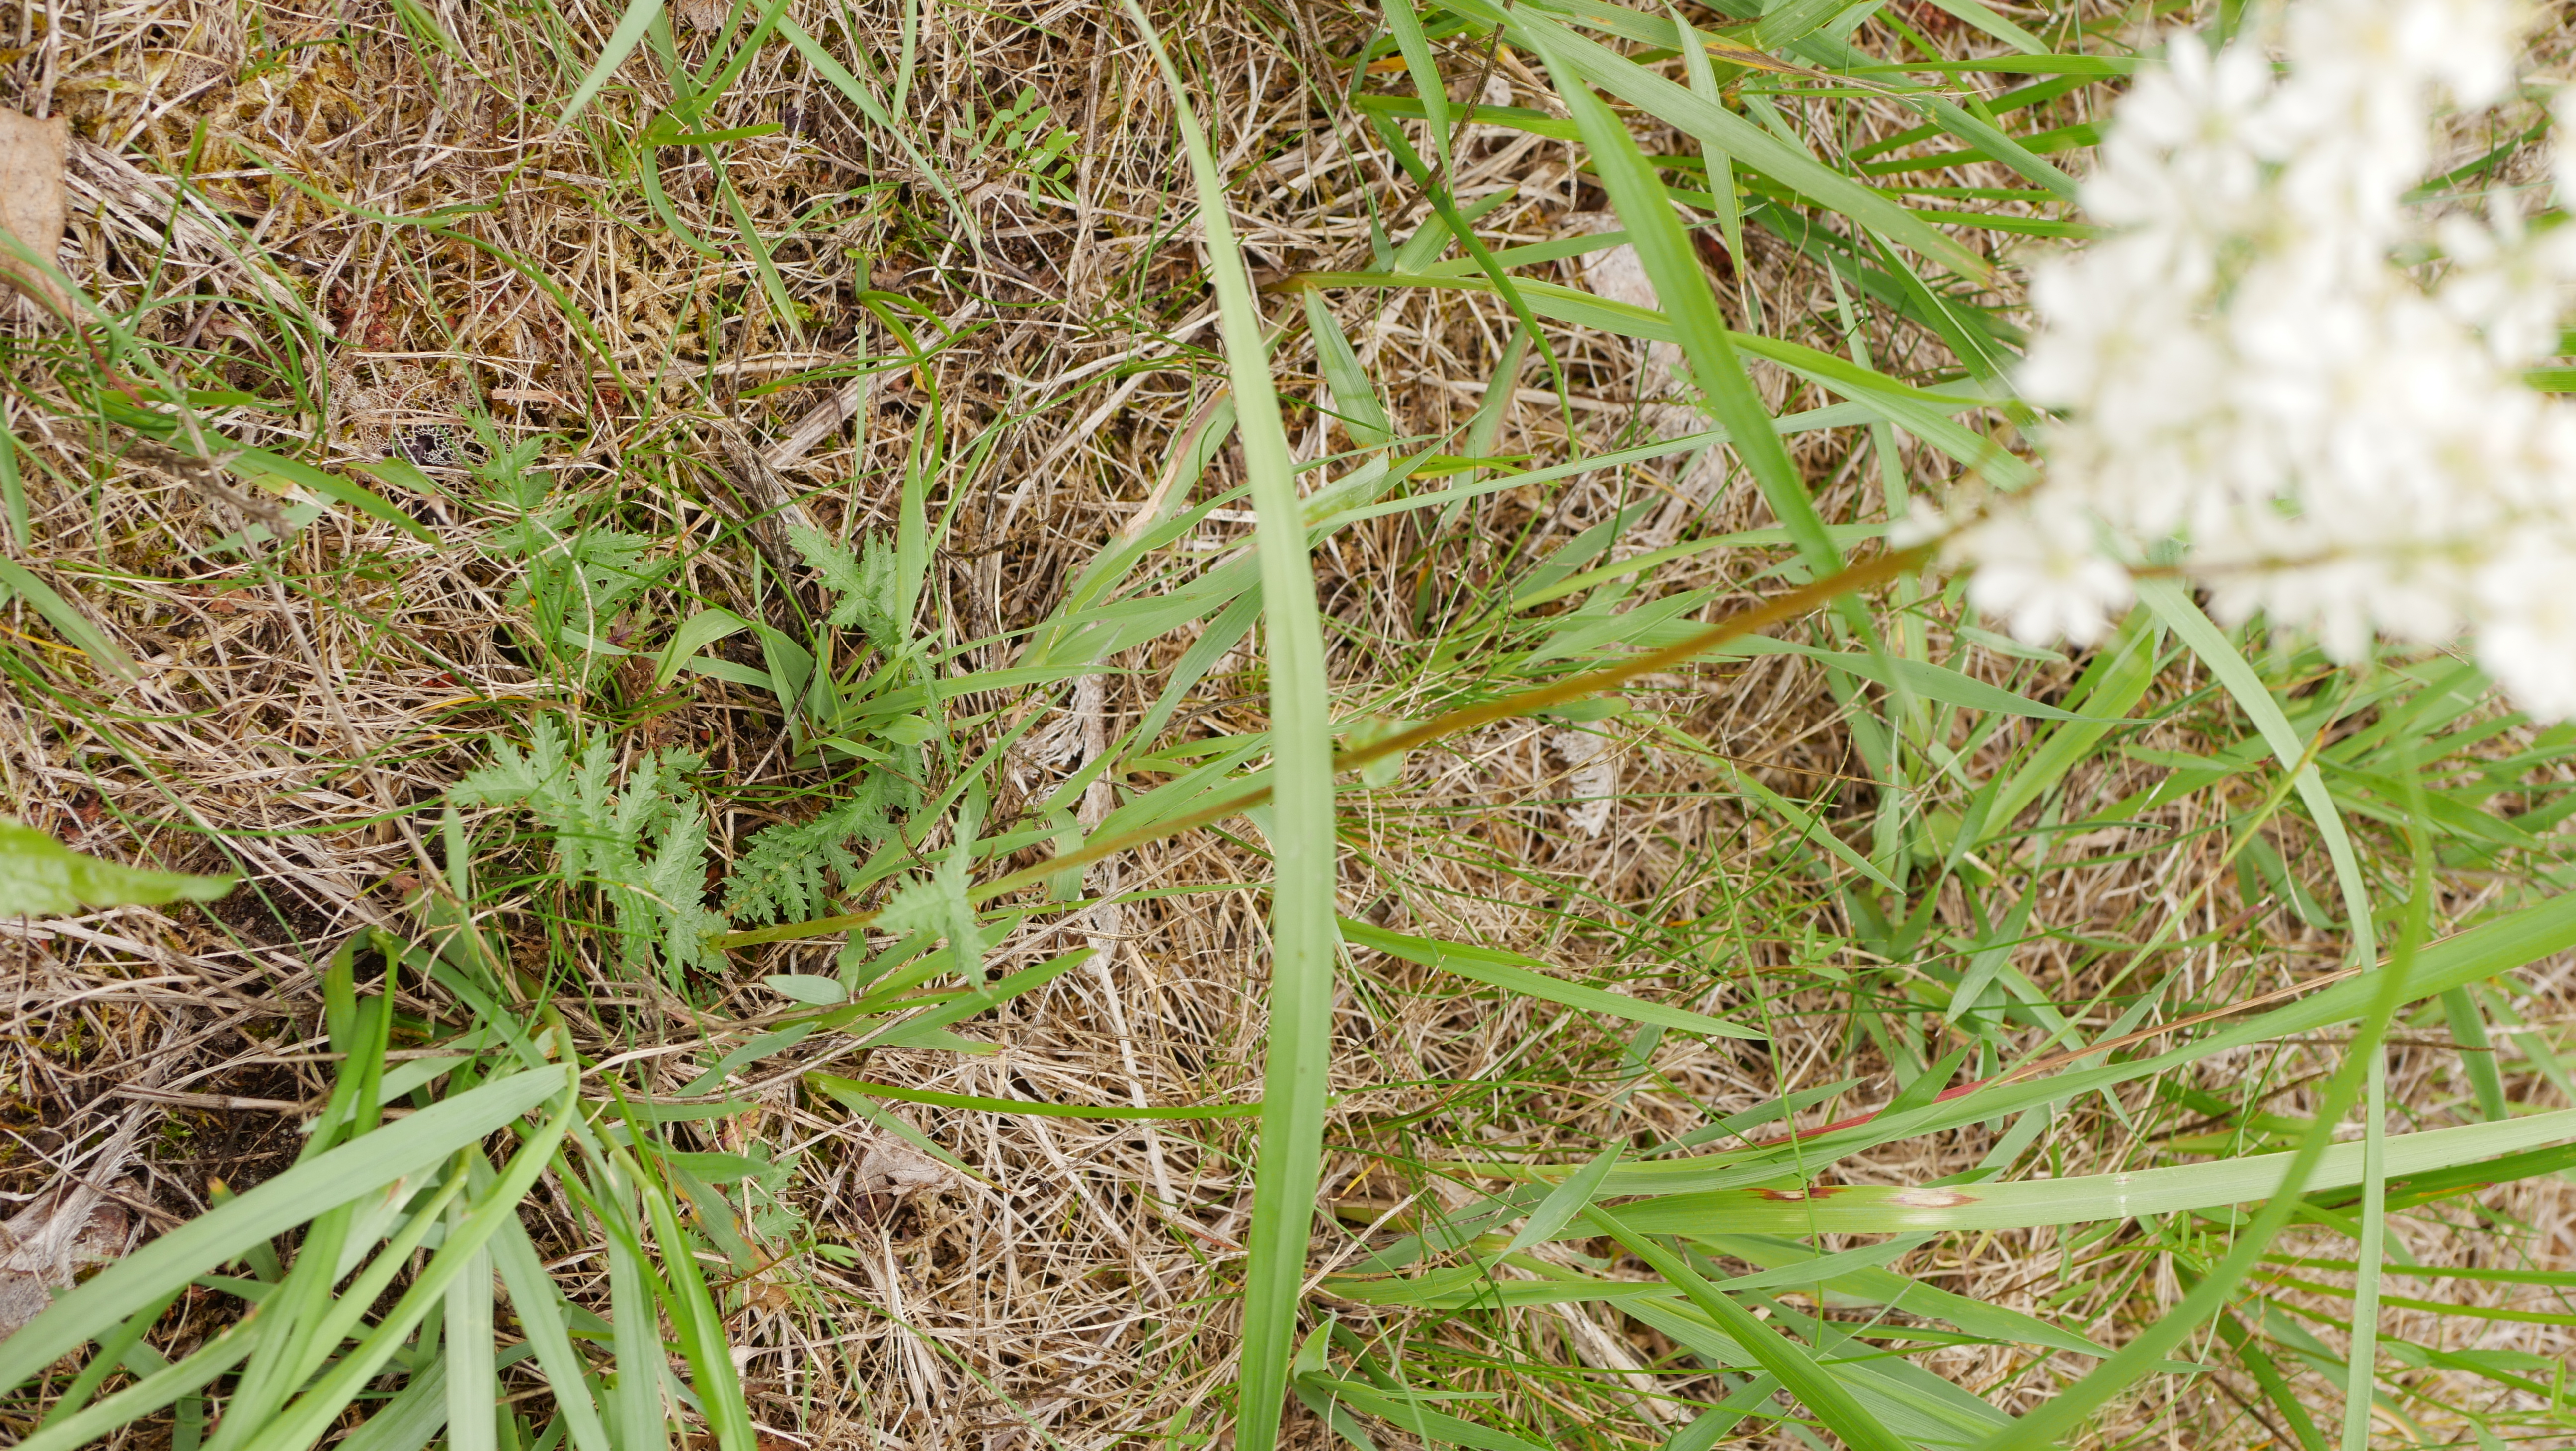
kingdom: Plantae
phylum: Tracheophyta
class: Magnoliopsida
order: Rosales
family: Rosaceae
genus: Filipendula
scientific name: Filipendula vulgaris
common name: Knoldet mjødurt
